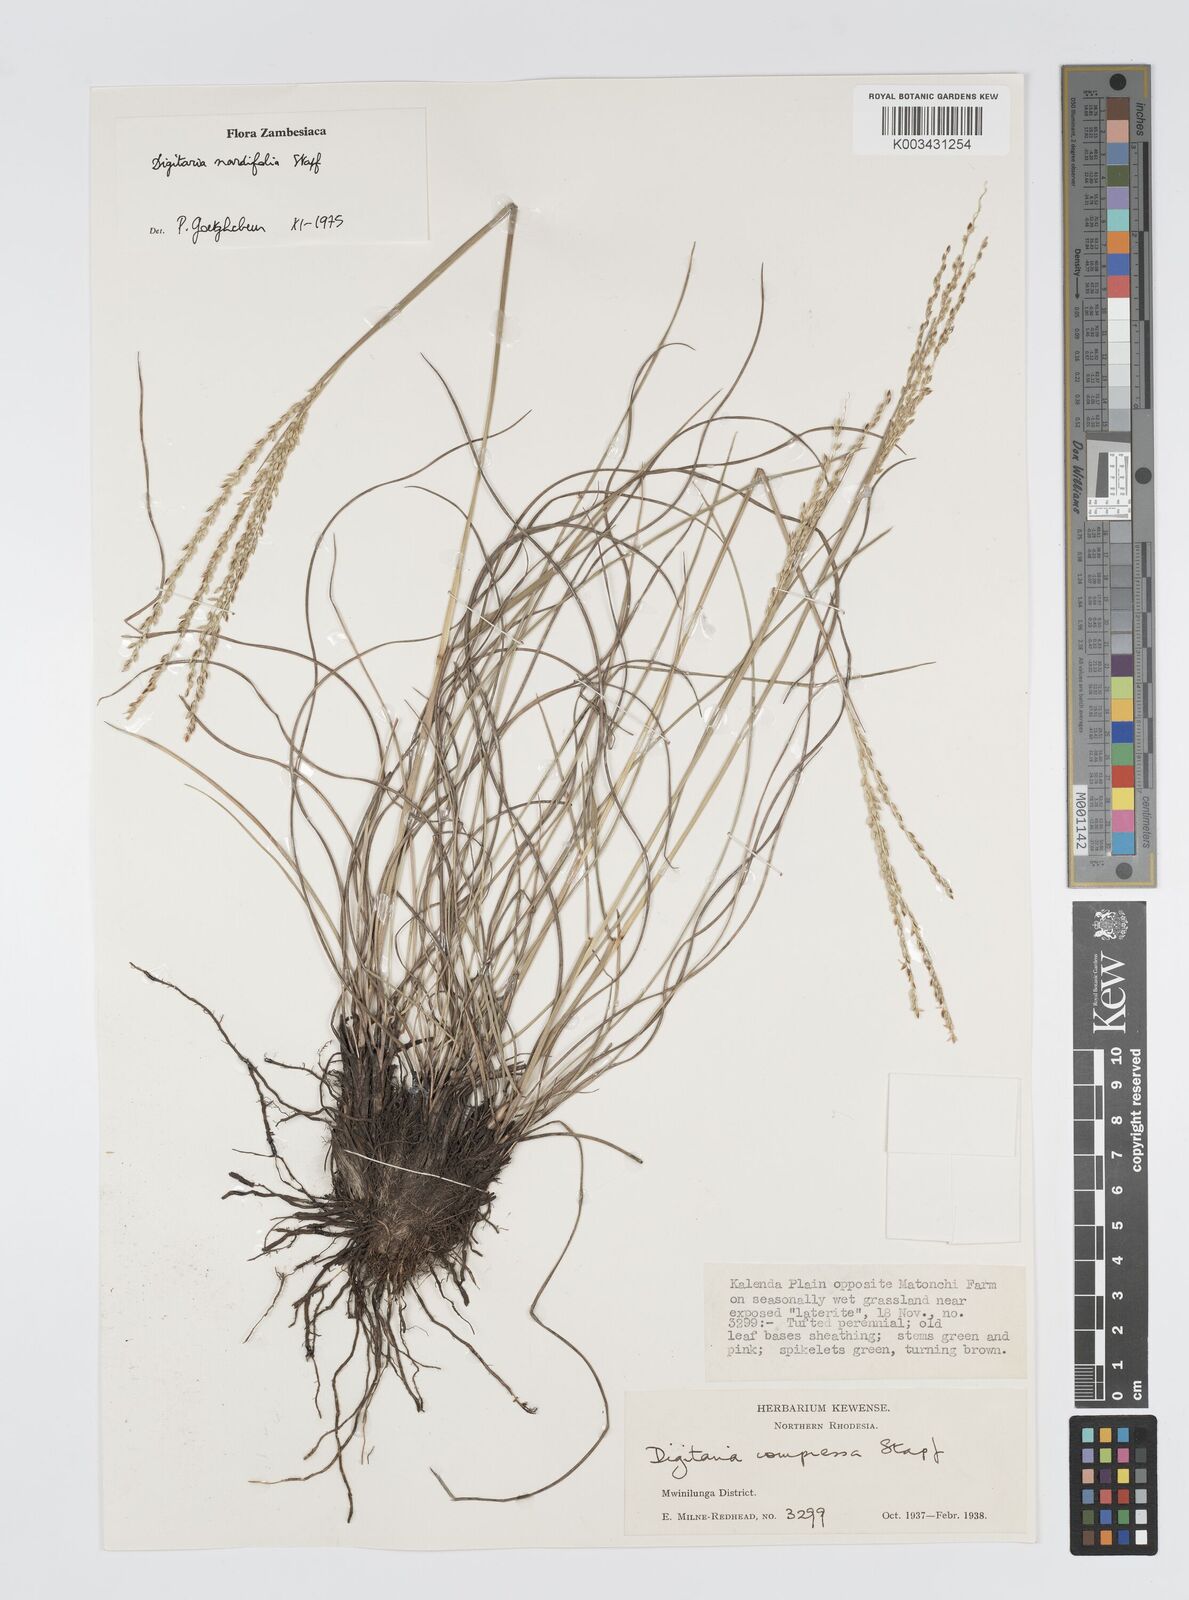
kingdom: Plantae
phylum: Tracheophyta
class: Liliopsida
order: Poales
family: Poaceae
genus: Digitaria
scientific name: Digitaria setifolia
